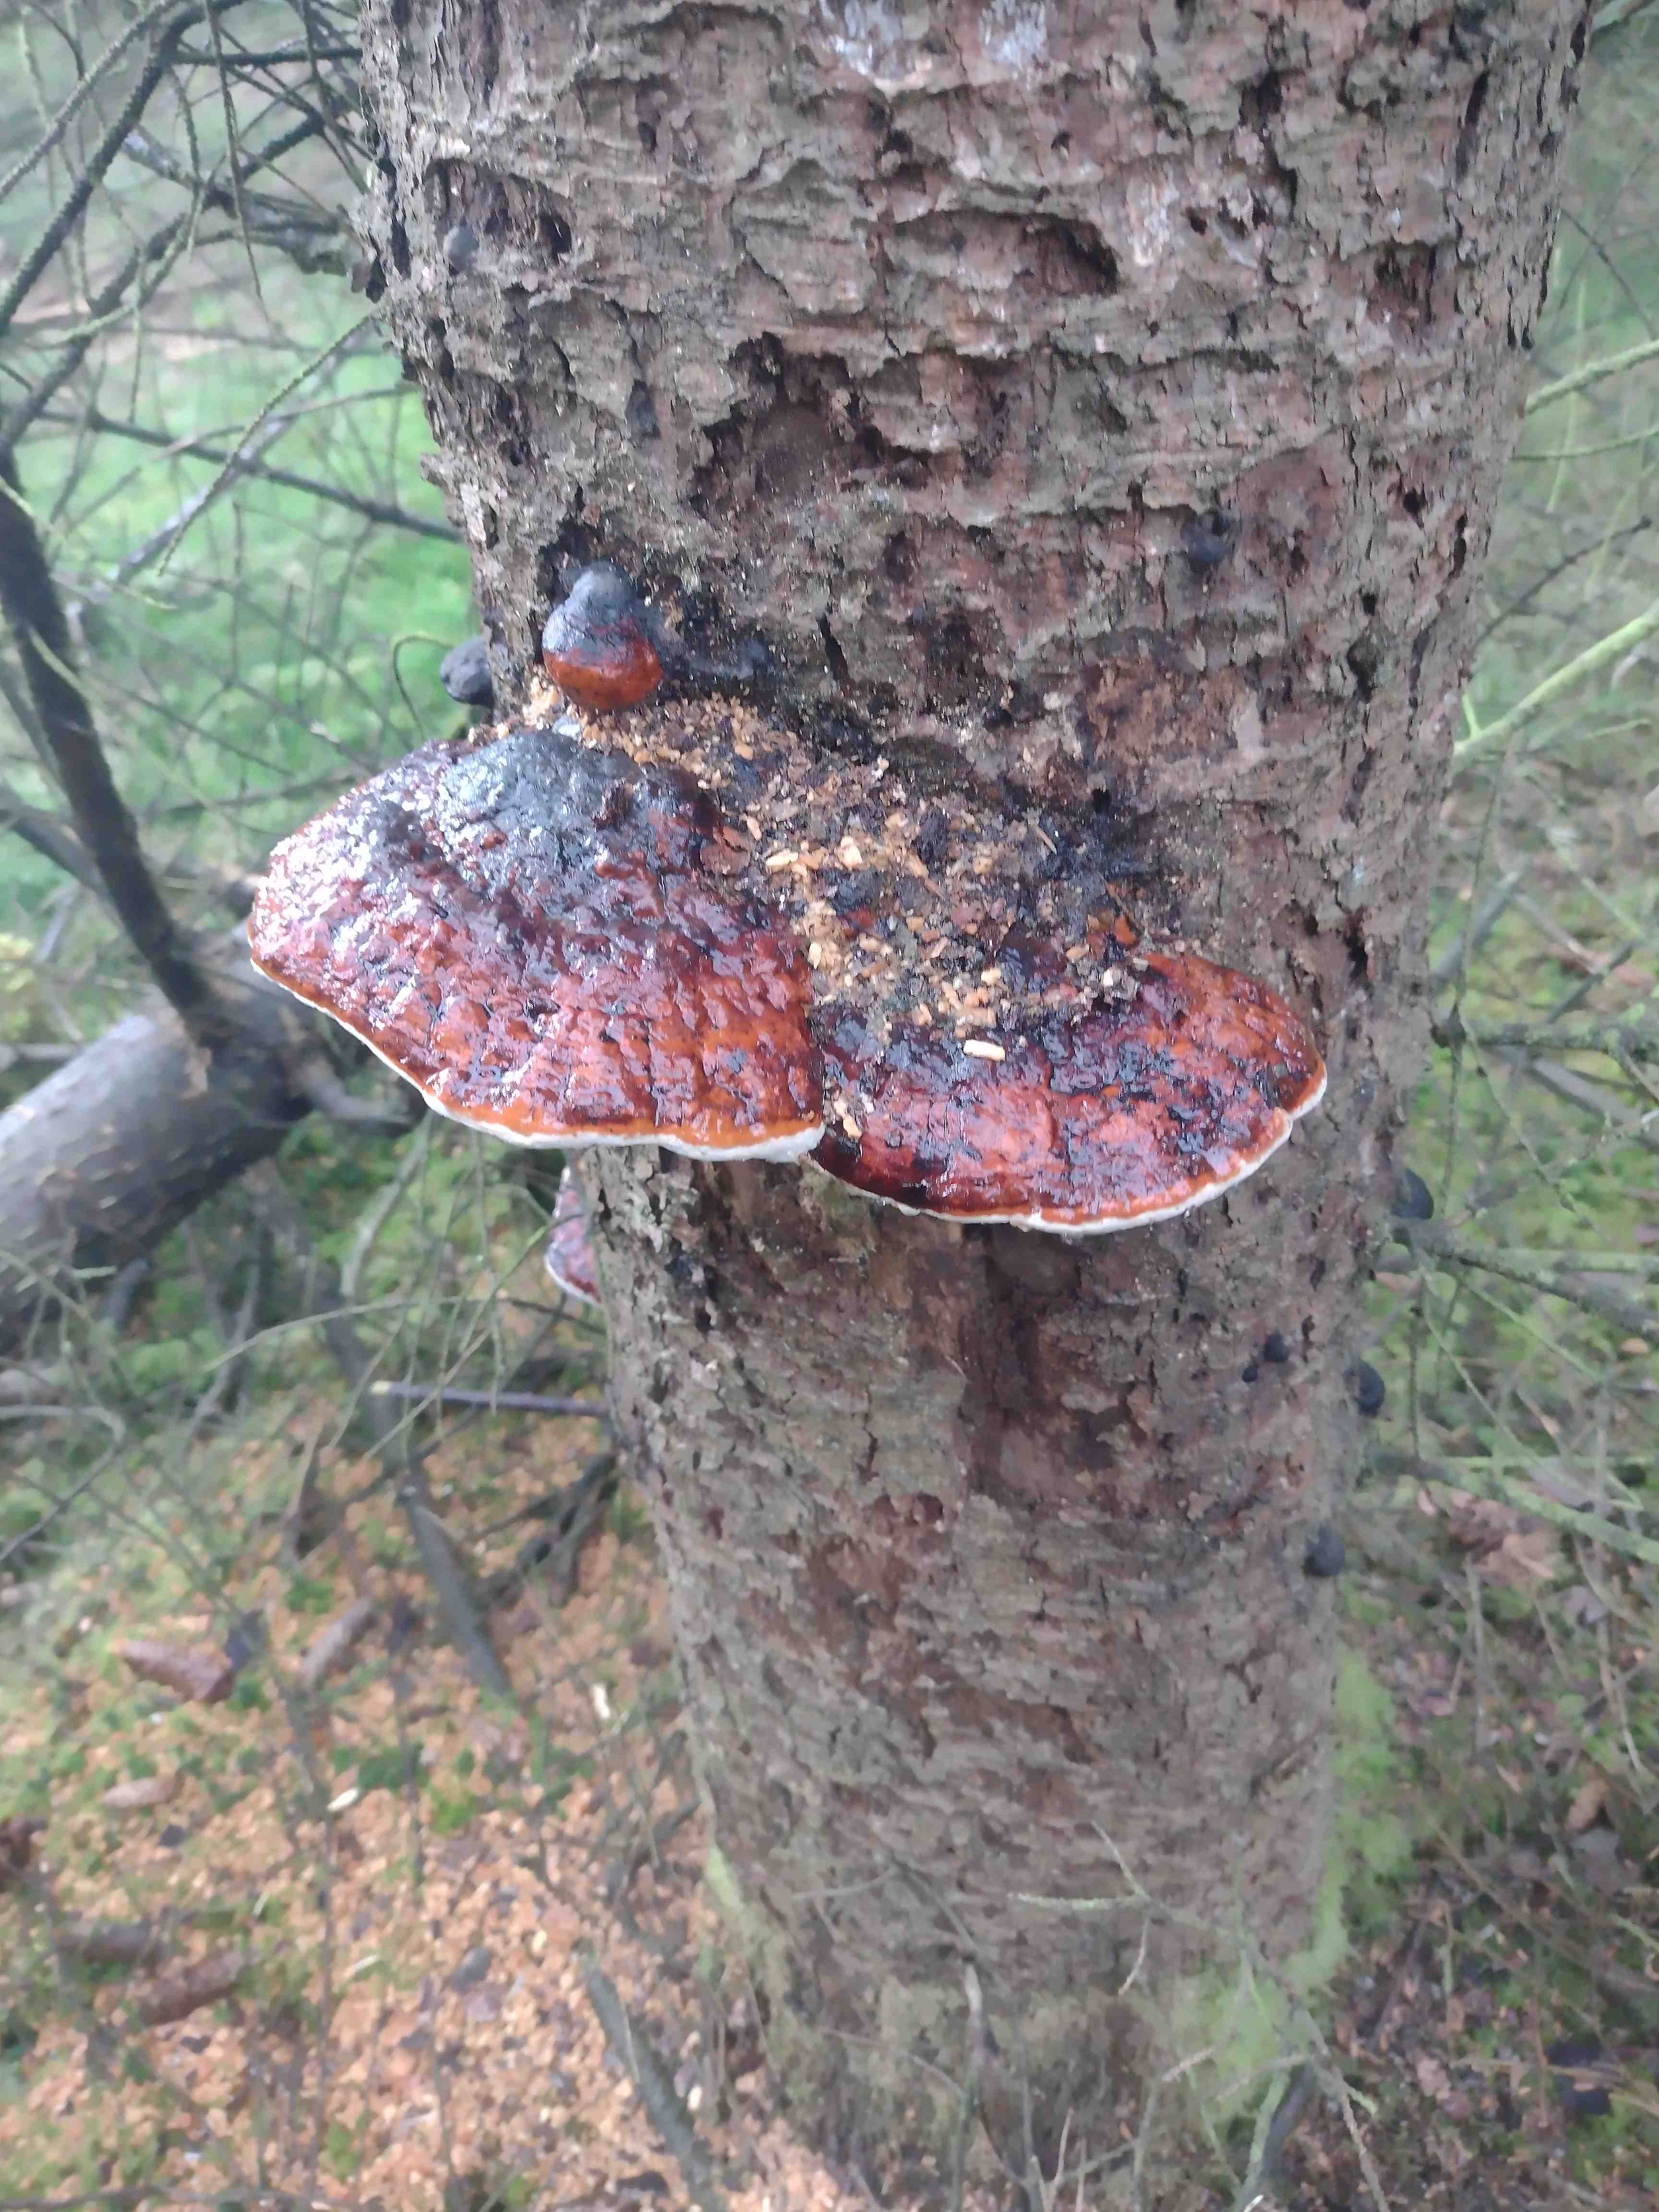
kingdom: Fungi
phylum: Basidiomycota
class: Agaricomycetes
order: Polyporales
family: Fomitopsidaceae
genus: Fomitopsis
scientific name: Fomitopsis pinicola
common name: randbæltet hovporesvamp
